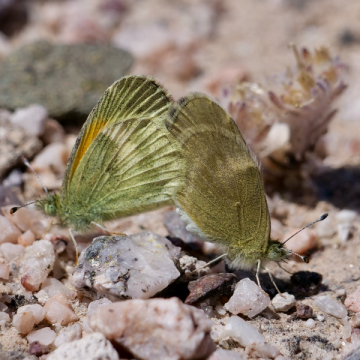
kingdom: Animalia
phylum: Arthropoda
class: Insecta
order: Lepidoptera
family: Pieridae
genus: Nathalis
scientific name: Nathalis iole
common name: Dainty Sulphur
